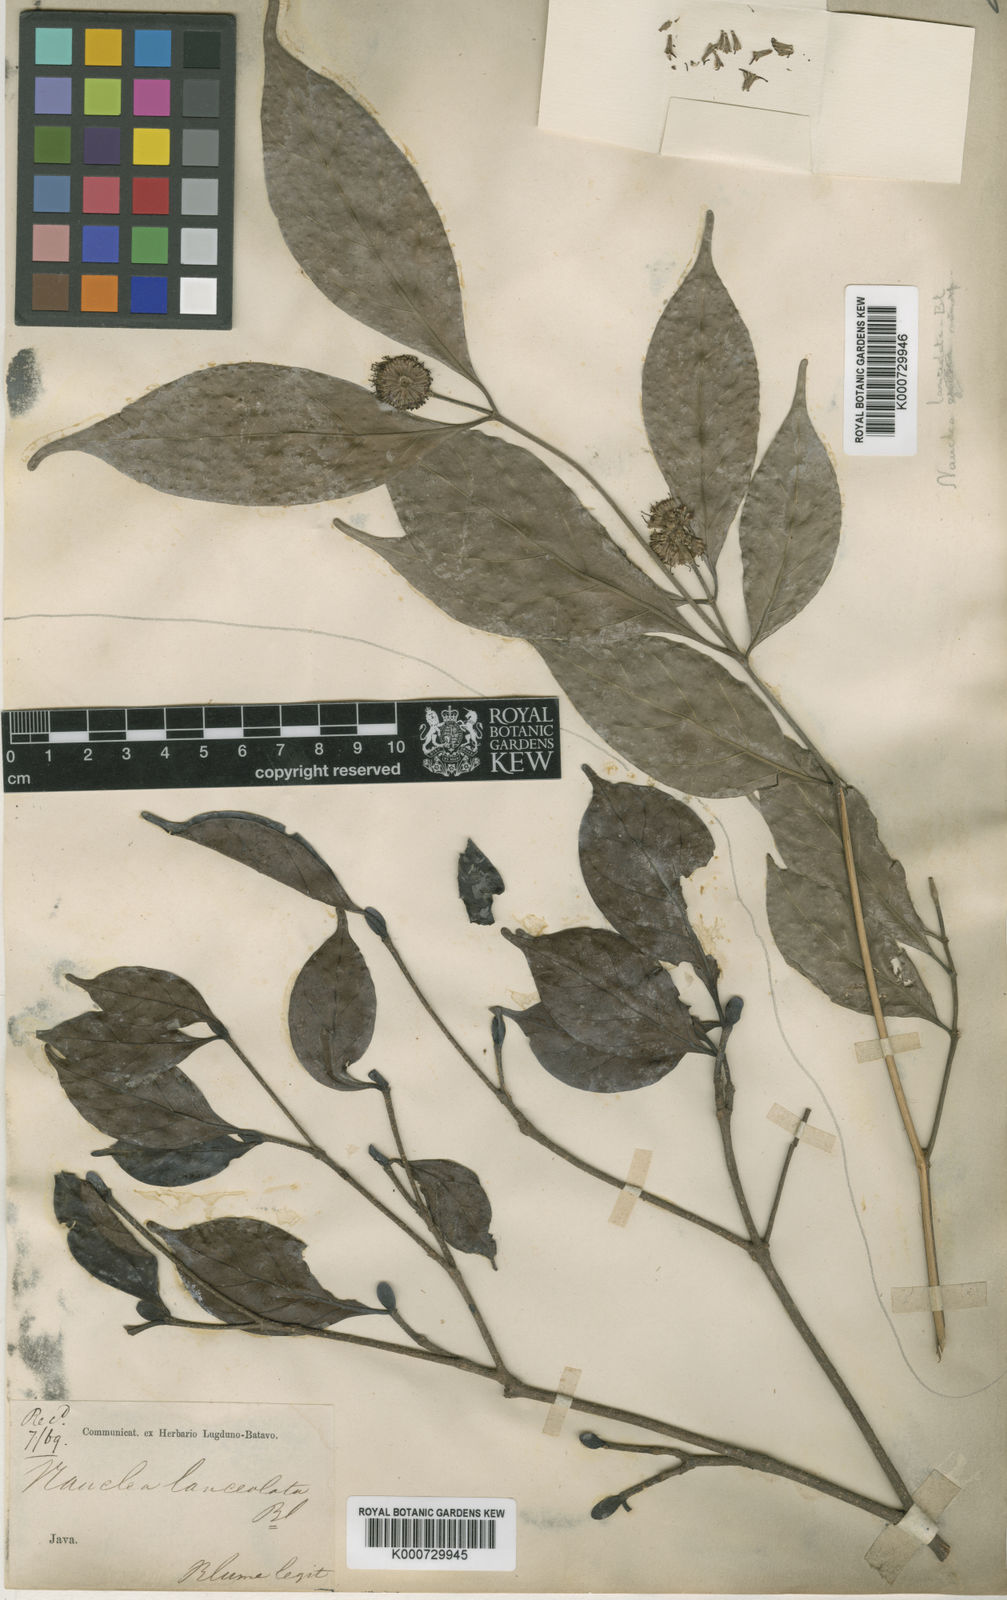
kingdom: Plantae
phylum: Tracheophyta
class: Magnoliopsida
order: Gentianales
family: Rubiaceae
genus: Neonauclea
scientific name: Neonauclea lanceolata
